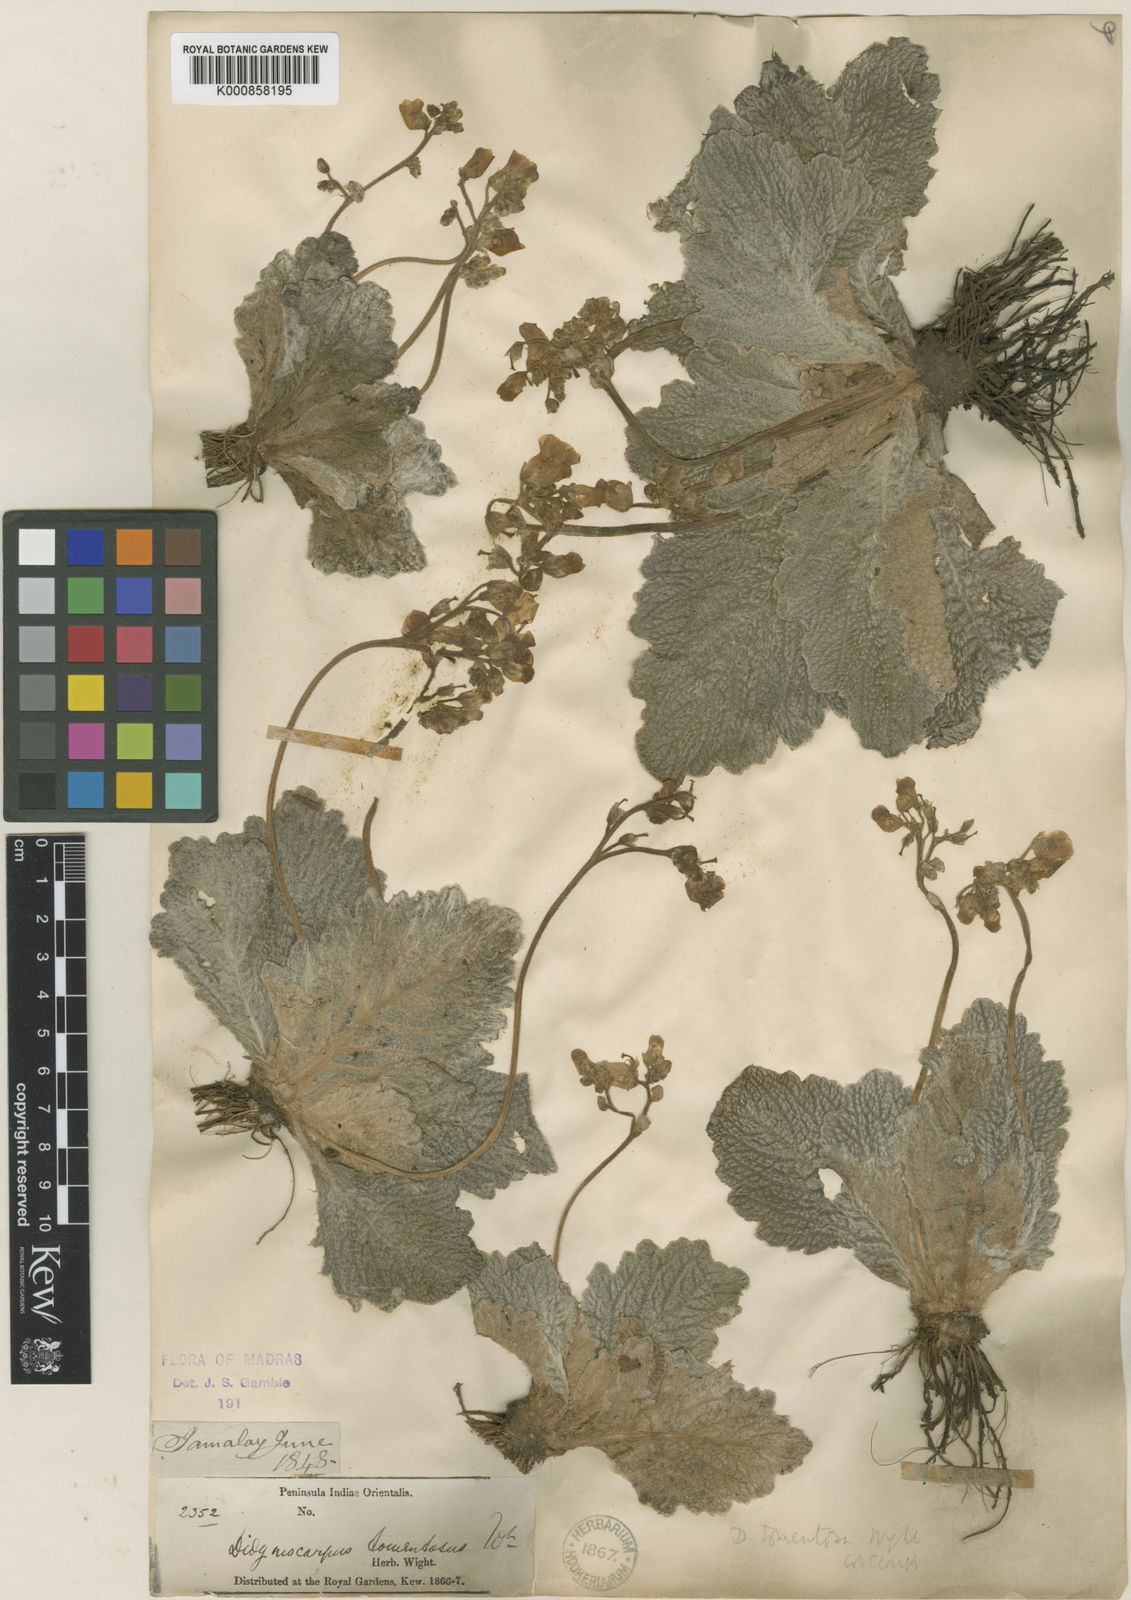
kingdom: Plantae
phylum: Tracheophyta
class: Magnoliopsida
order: Lamiales
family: Gesneriaceae
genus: Henckelia
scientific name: Henckelia incana
